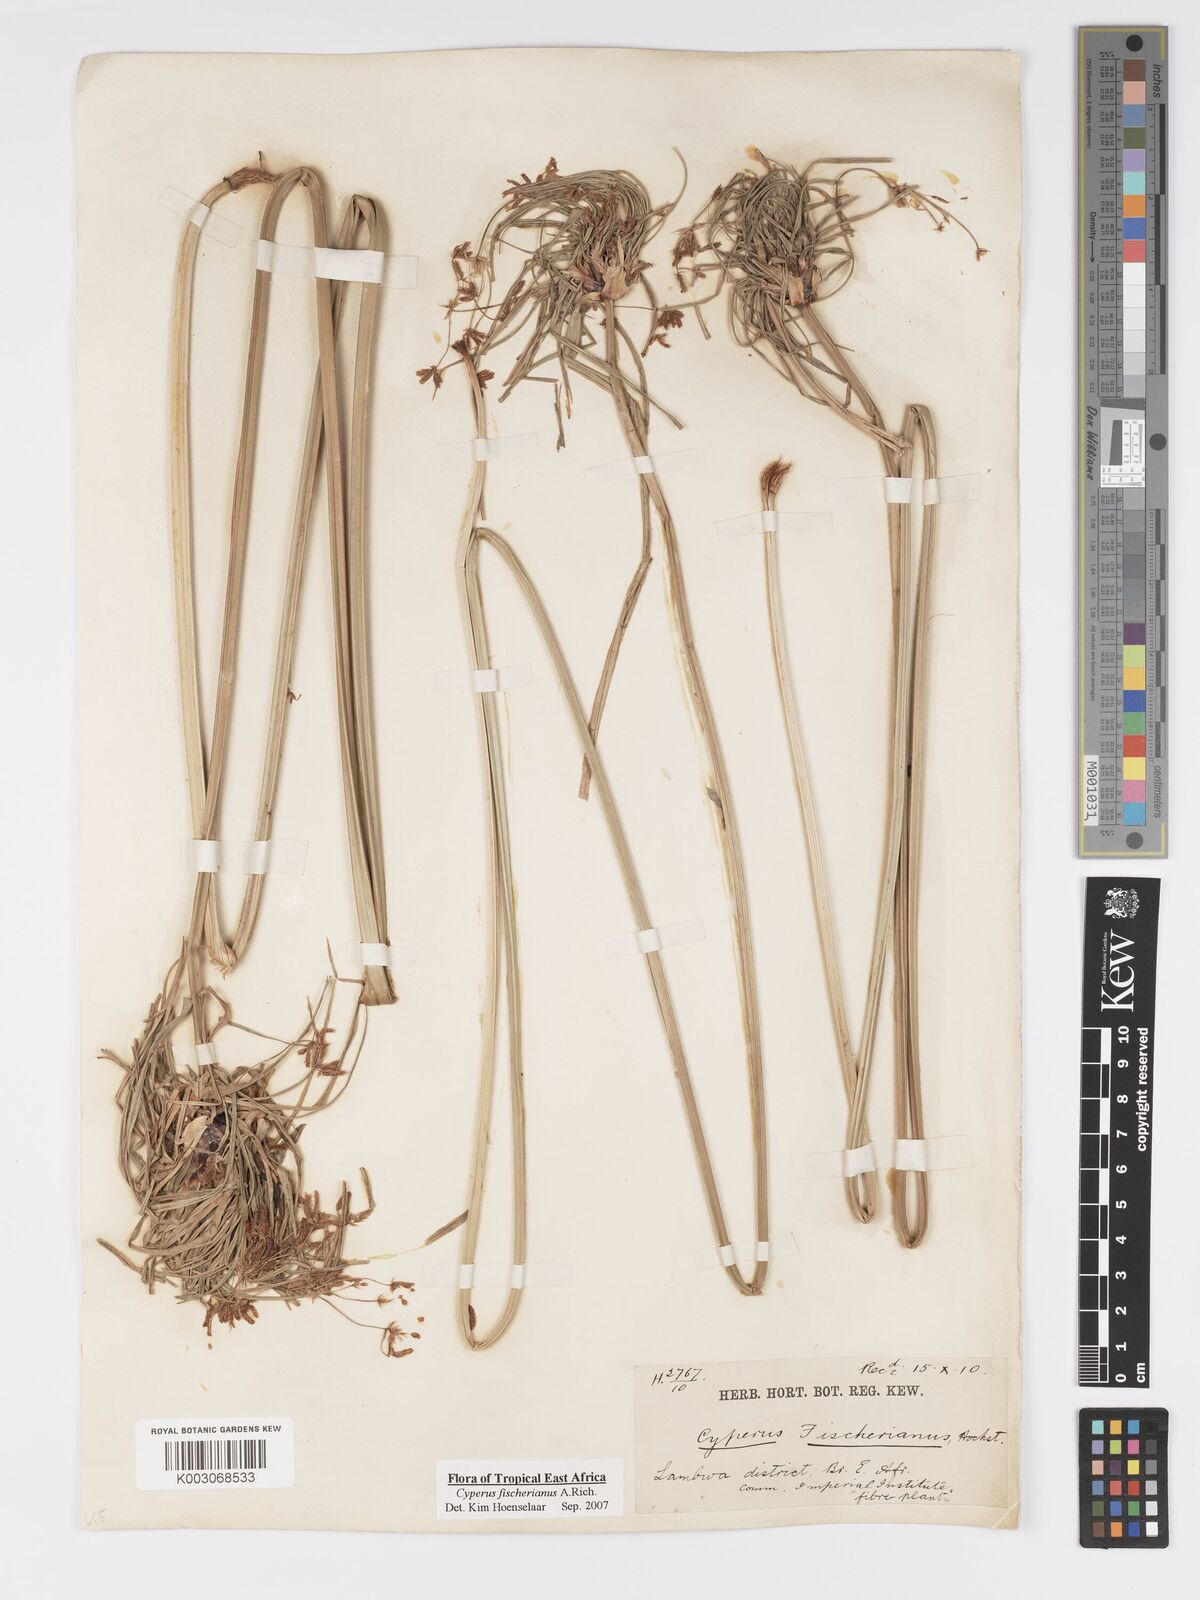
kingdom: Plantae
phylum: Tracheophyta
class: Liliopsida
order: Poales
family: Cyperaceae
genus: Cyperus
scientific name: Cyperus fischerianus
